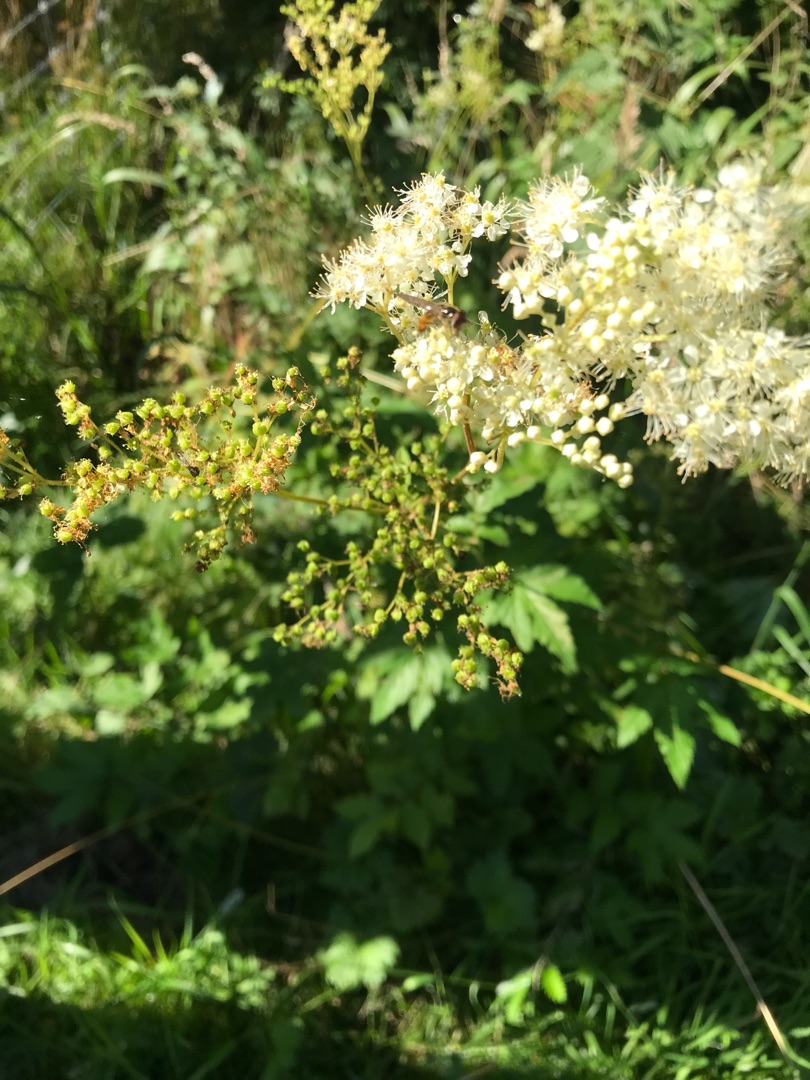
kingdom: Plantae
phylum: Tracheophyta
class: Magnoliopsida
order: Rosales
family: Rosaceae
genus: Filipendula
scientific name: Filipendula ulmaria
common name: Almindelig mjødurt
